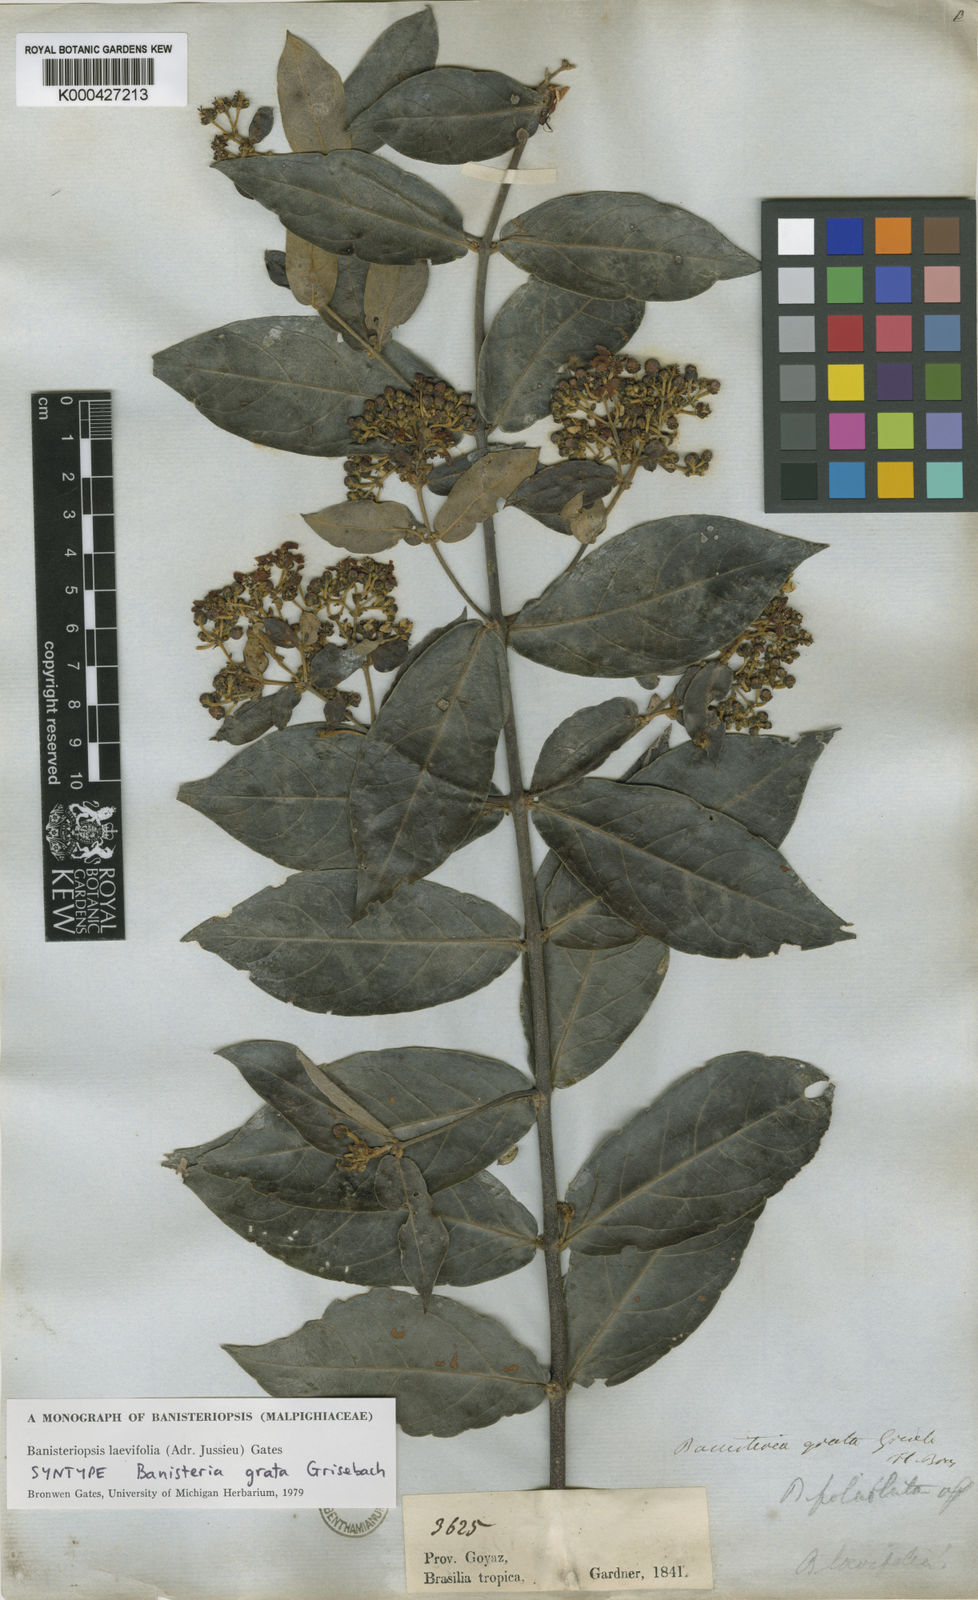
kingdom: Plantae
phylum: Tracheophyta
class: Magnoliopsida
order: Malpighiales
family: Malpighiaceae
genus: Banisteriopsis
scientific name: Banisteriopsis laevifolia
